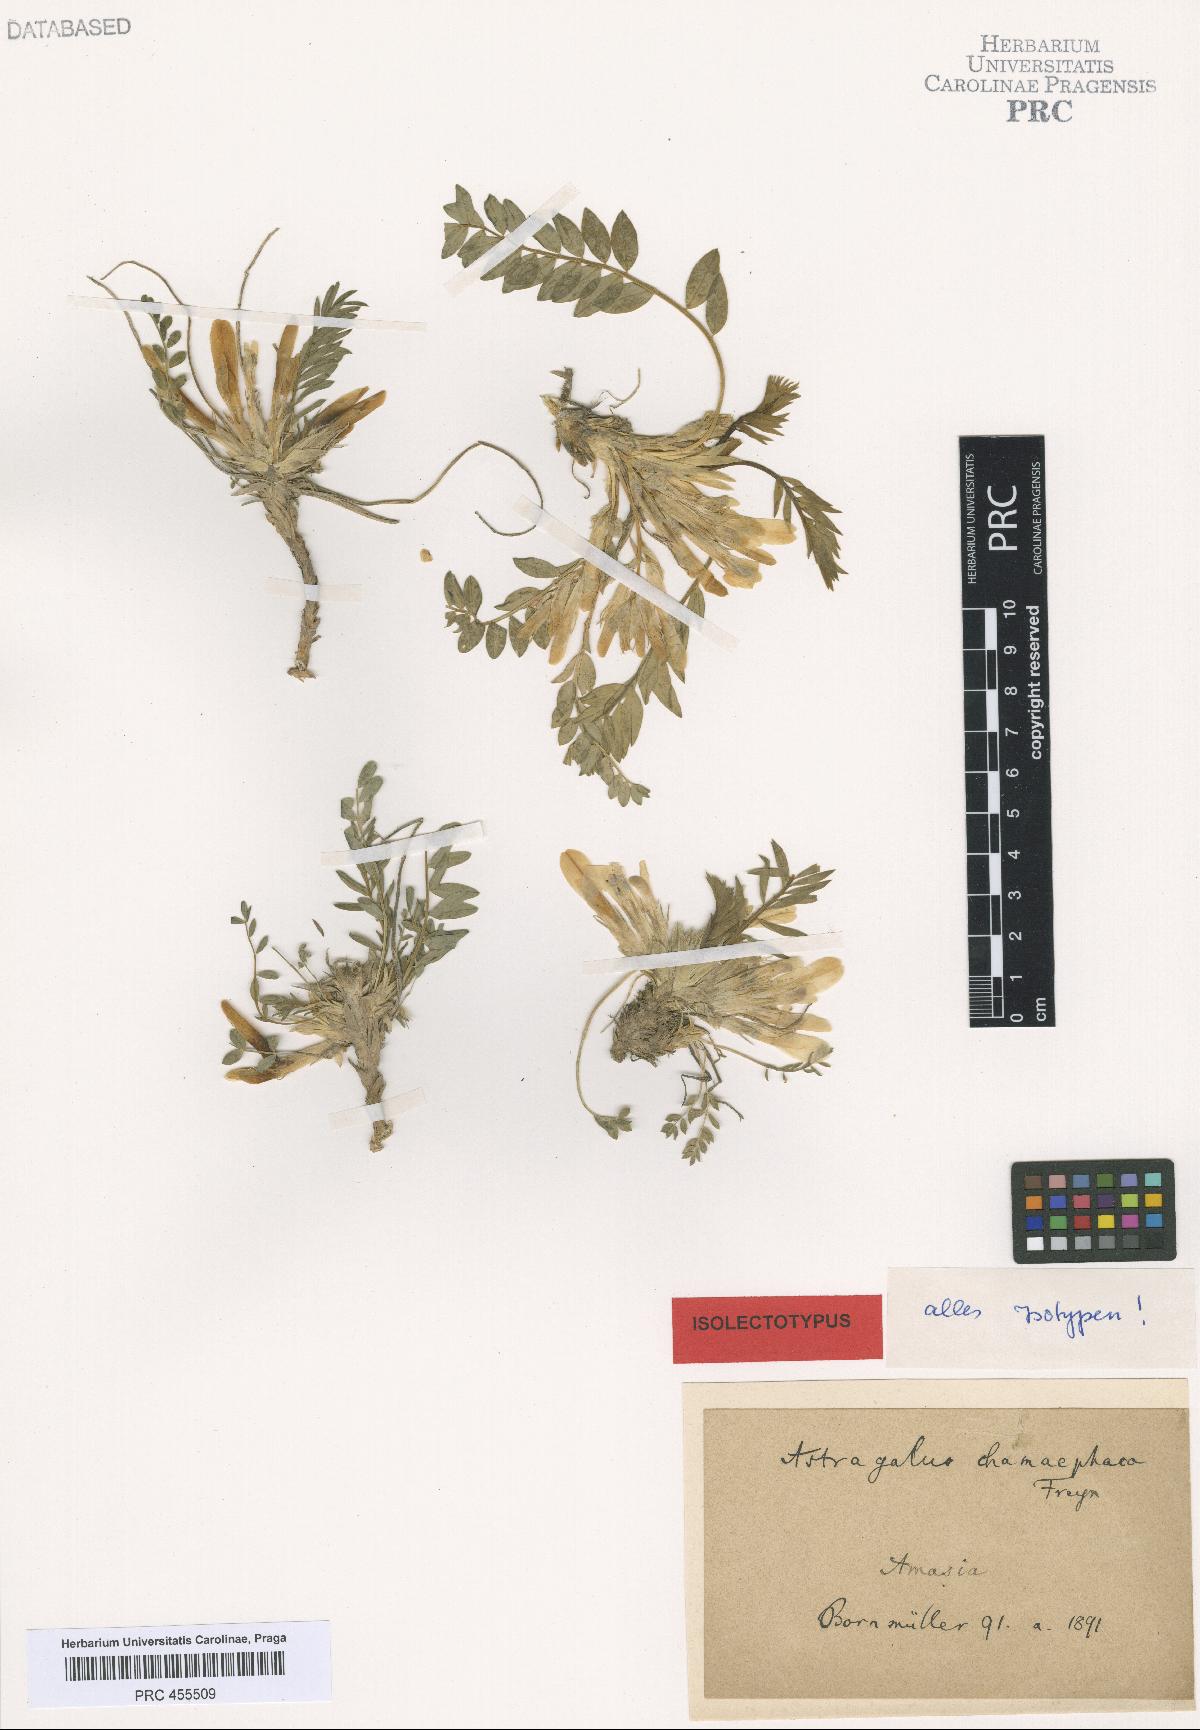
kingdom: Plantae
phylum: Tracheophyta
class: Magnoliopsida
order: Fabales
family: Fabaceae
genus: Astragalus
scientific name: Astragalus chamaephaca
